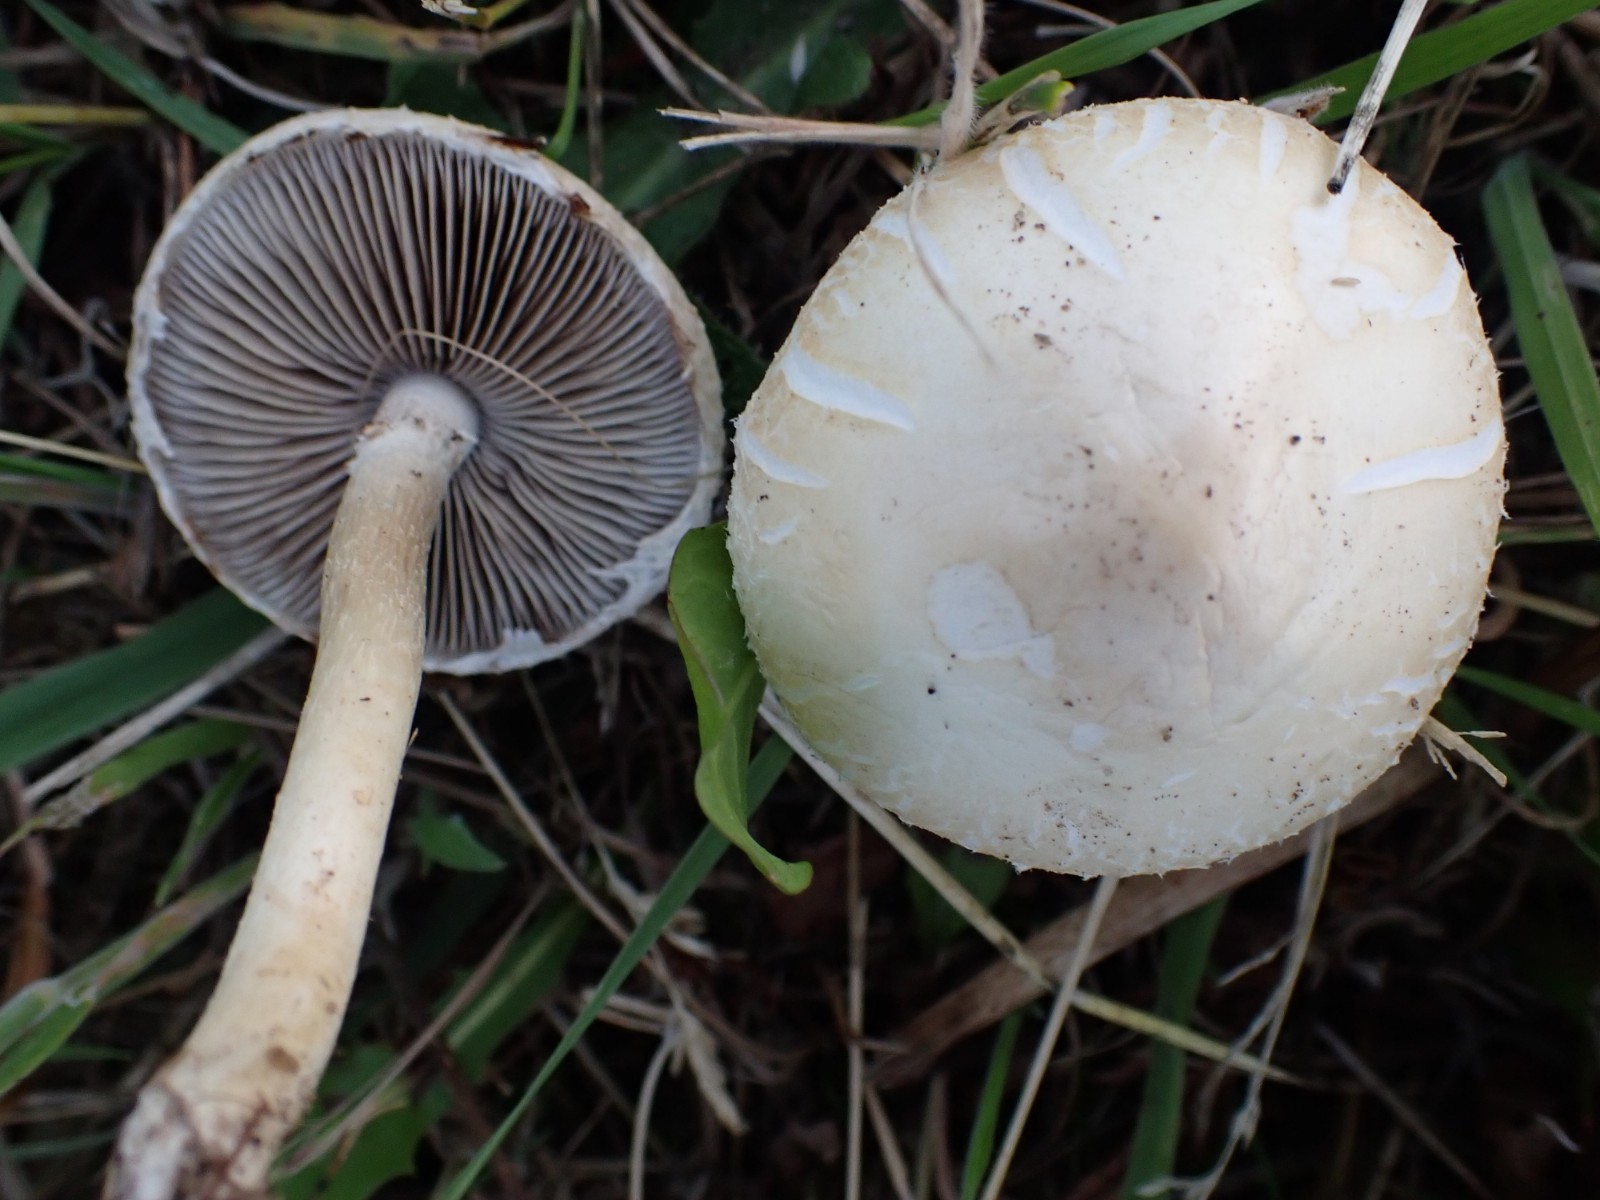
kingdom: Fungi
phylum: Basidiomycota
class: Agaricomycetes
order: Agaricales
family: Strophariaceae
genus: Agrocybe
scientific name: Agrocybe dura
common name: fastkødet agerhat
